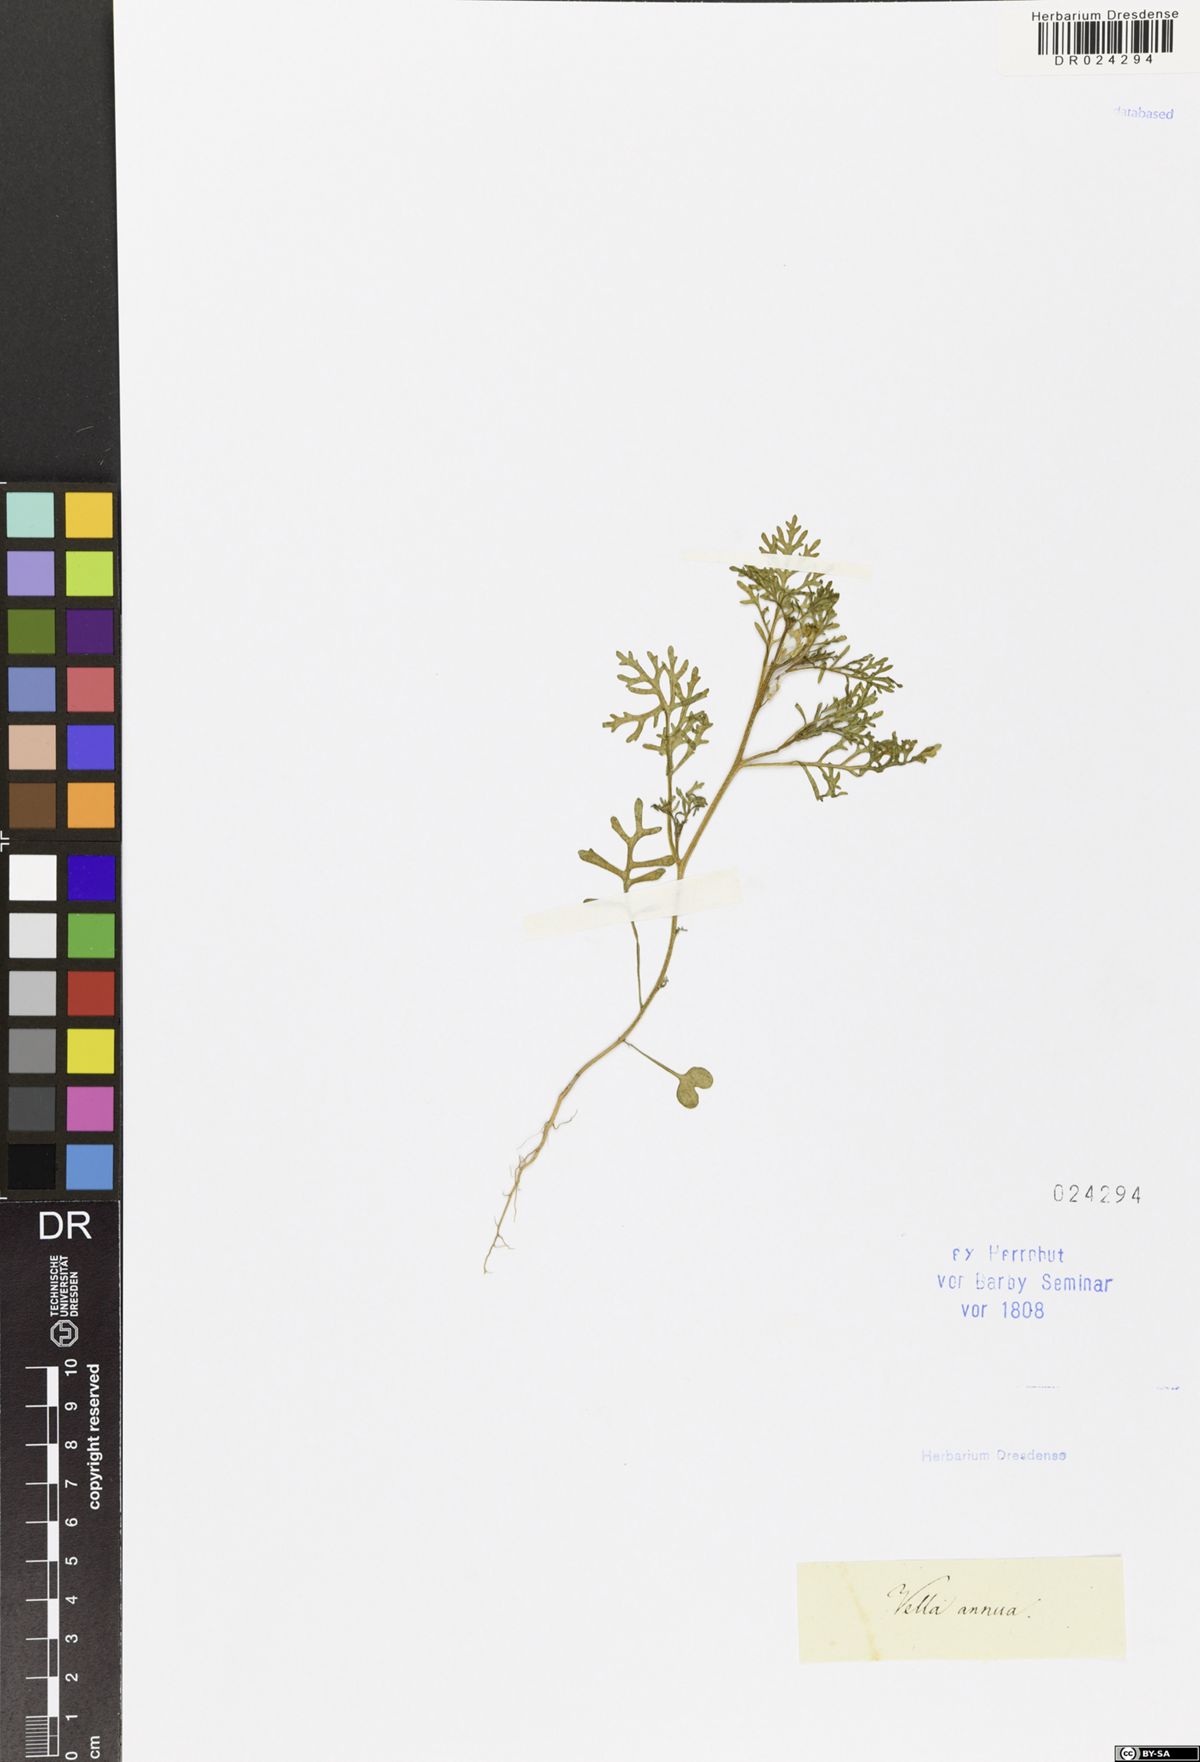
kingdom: Plantae
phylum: Tracheophyta
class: Magnoliopsida
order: Brassicales
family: Brassicaceae
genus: Carrichtera
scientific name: Carrichtera annua
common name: Cress rocket
